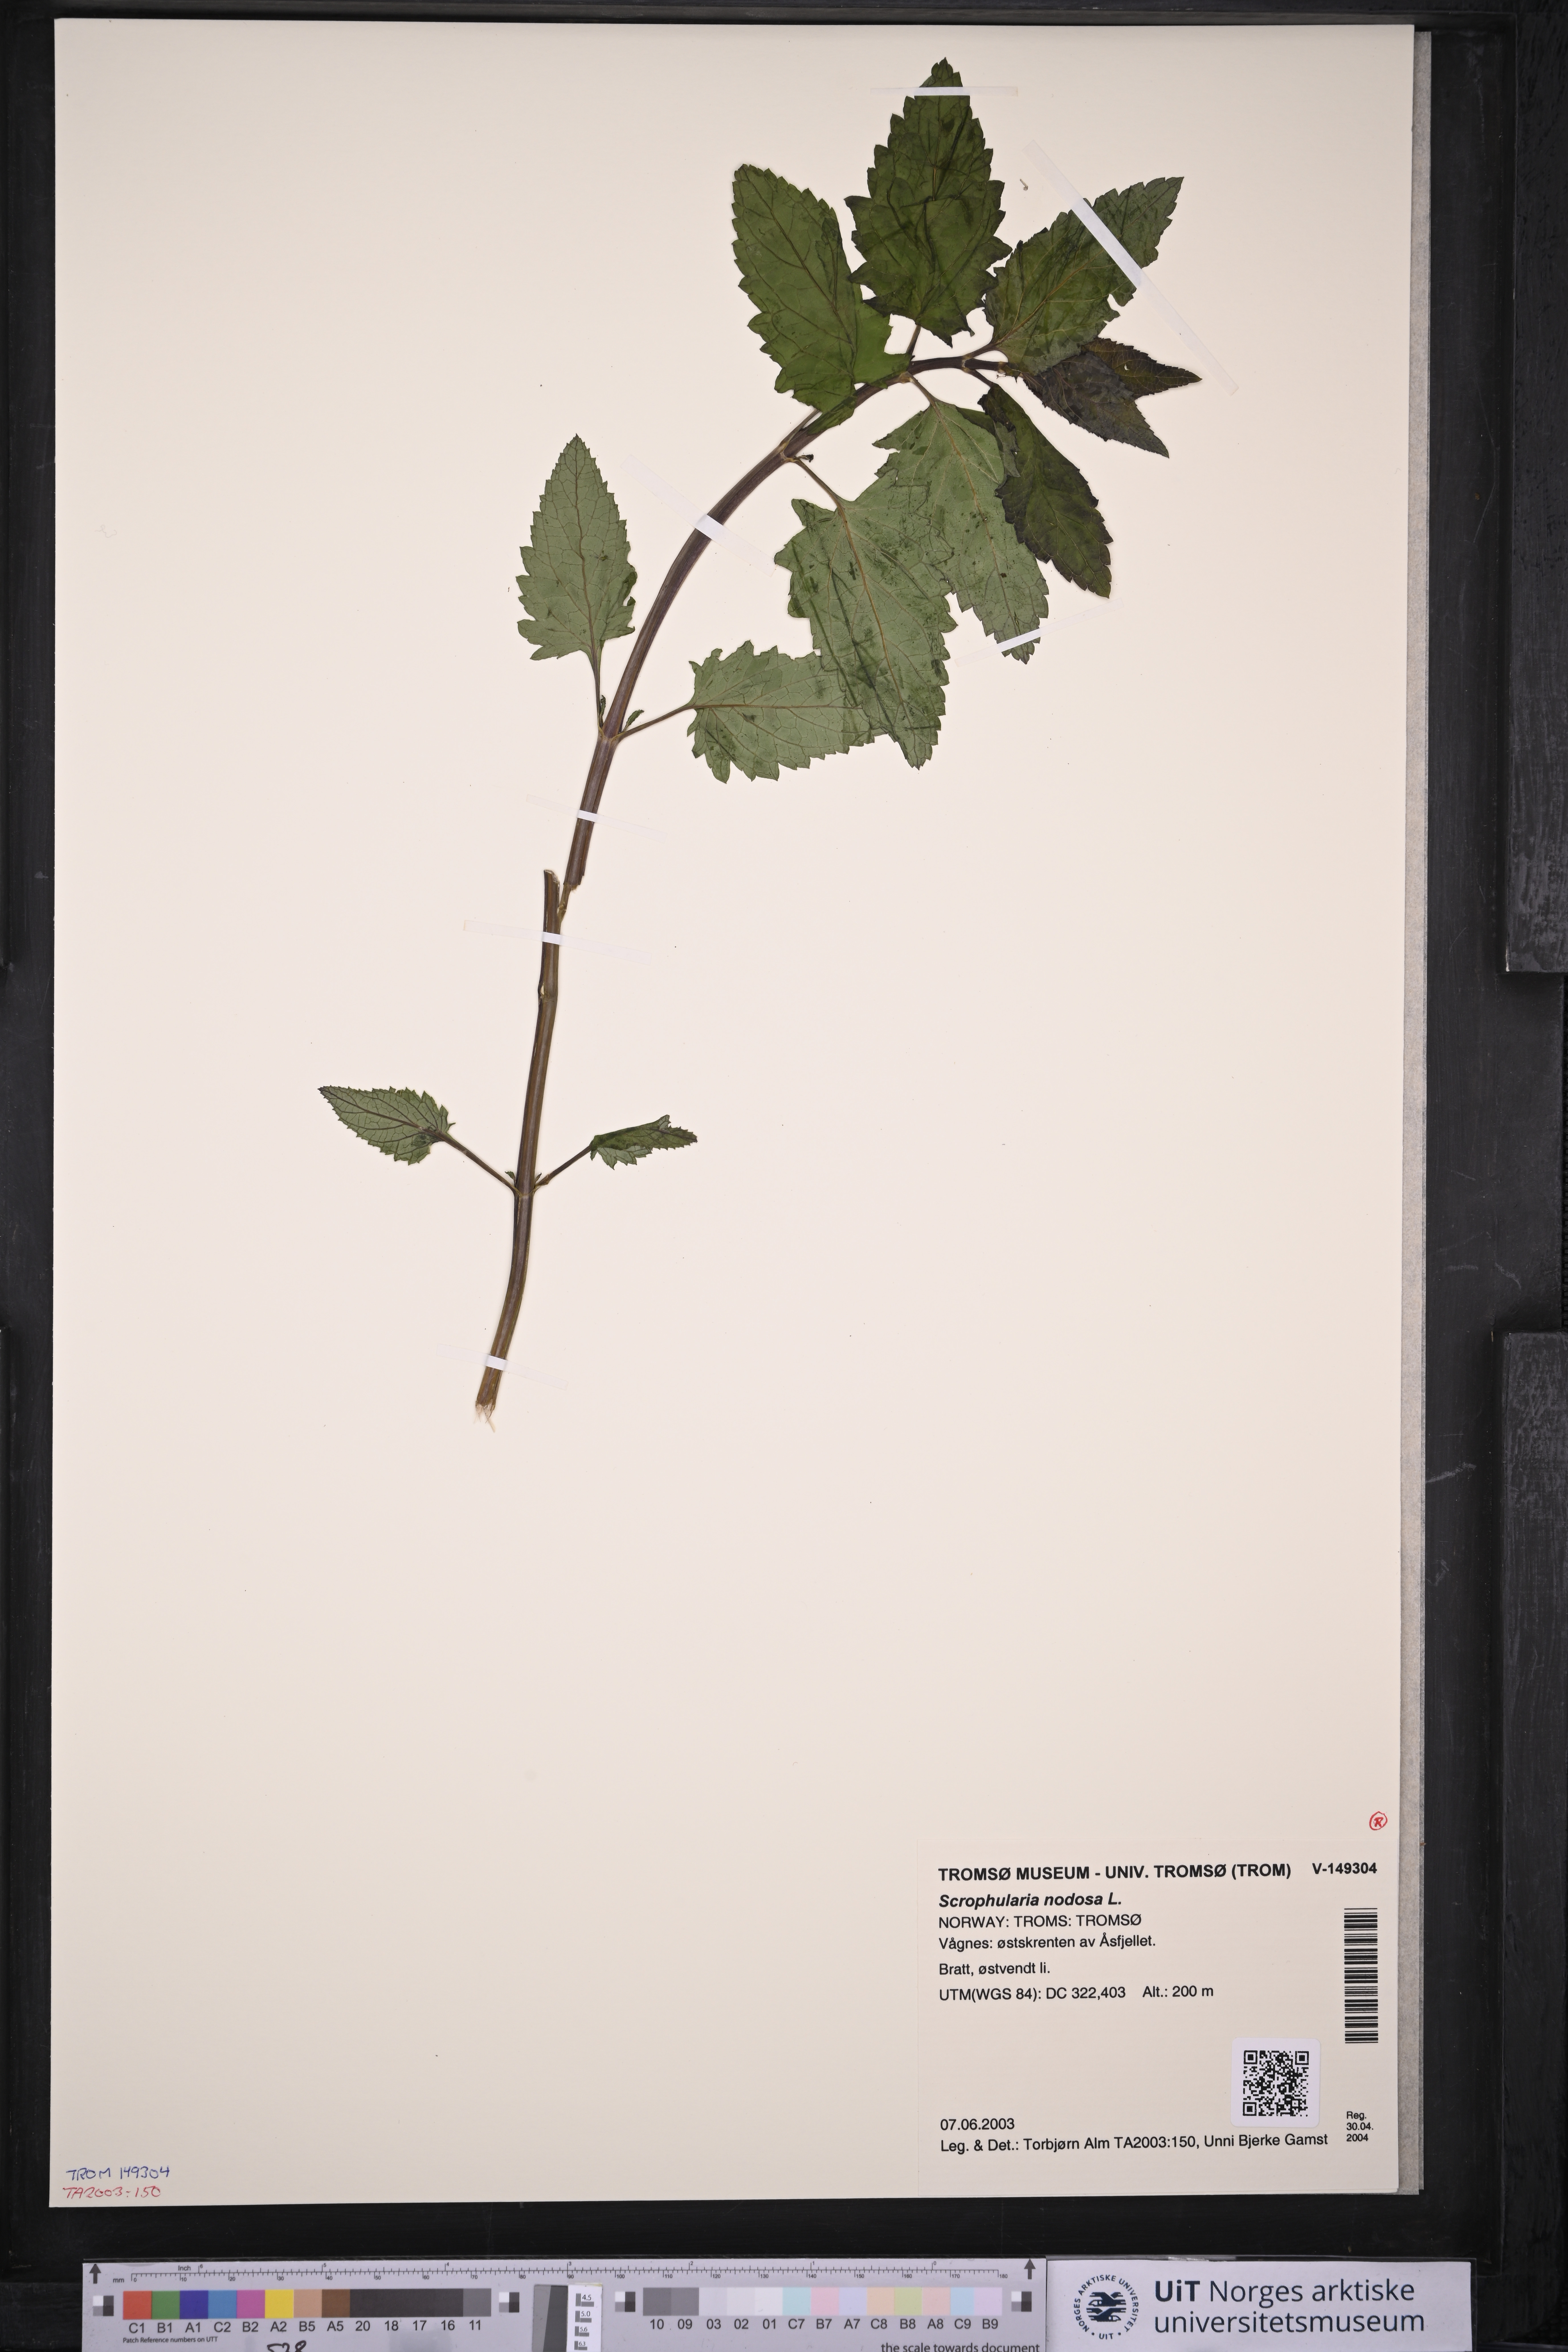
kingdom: Plantae
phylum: Tracheophyta
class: Magnoliopsida
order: Lamiales
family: Scrophulariaceae
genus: Scrophularia
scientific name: Scrophularia nodosa
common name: Common figwort
